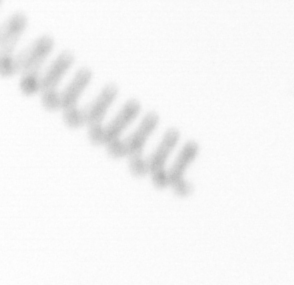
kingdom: Chromista
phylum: Ochrophyta
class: Bacillariophyceae
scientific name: Bacillariophyceae
